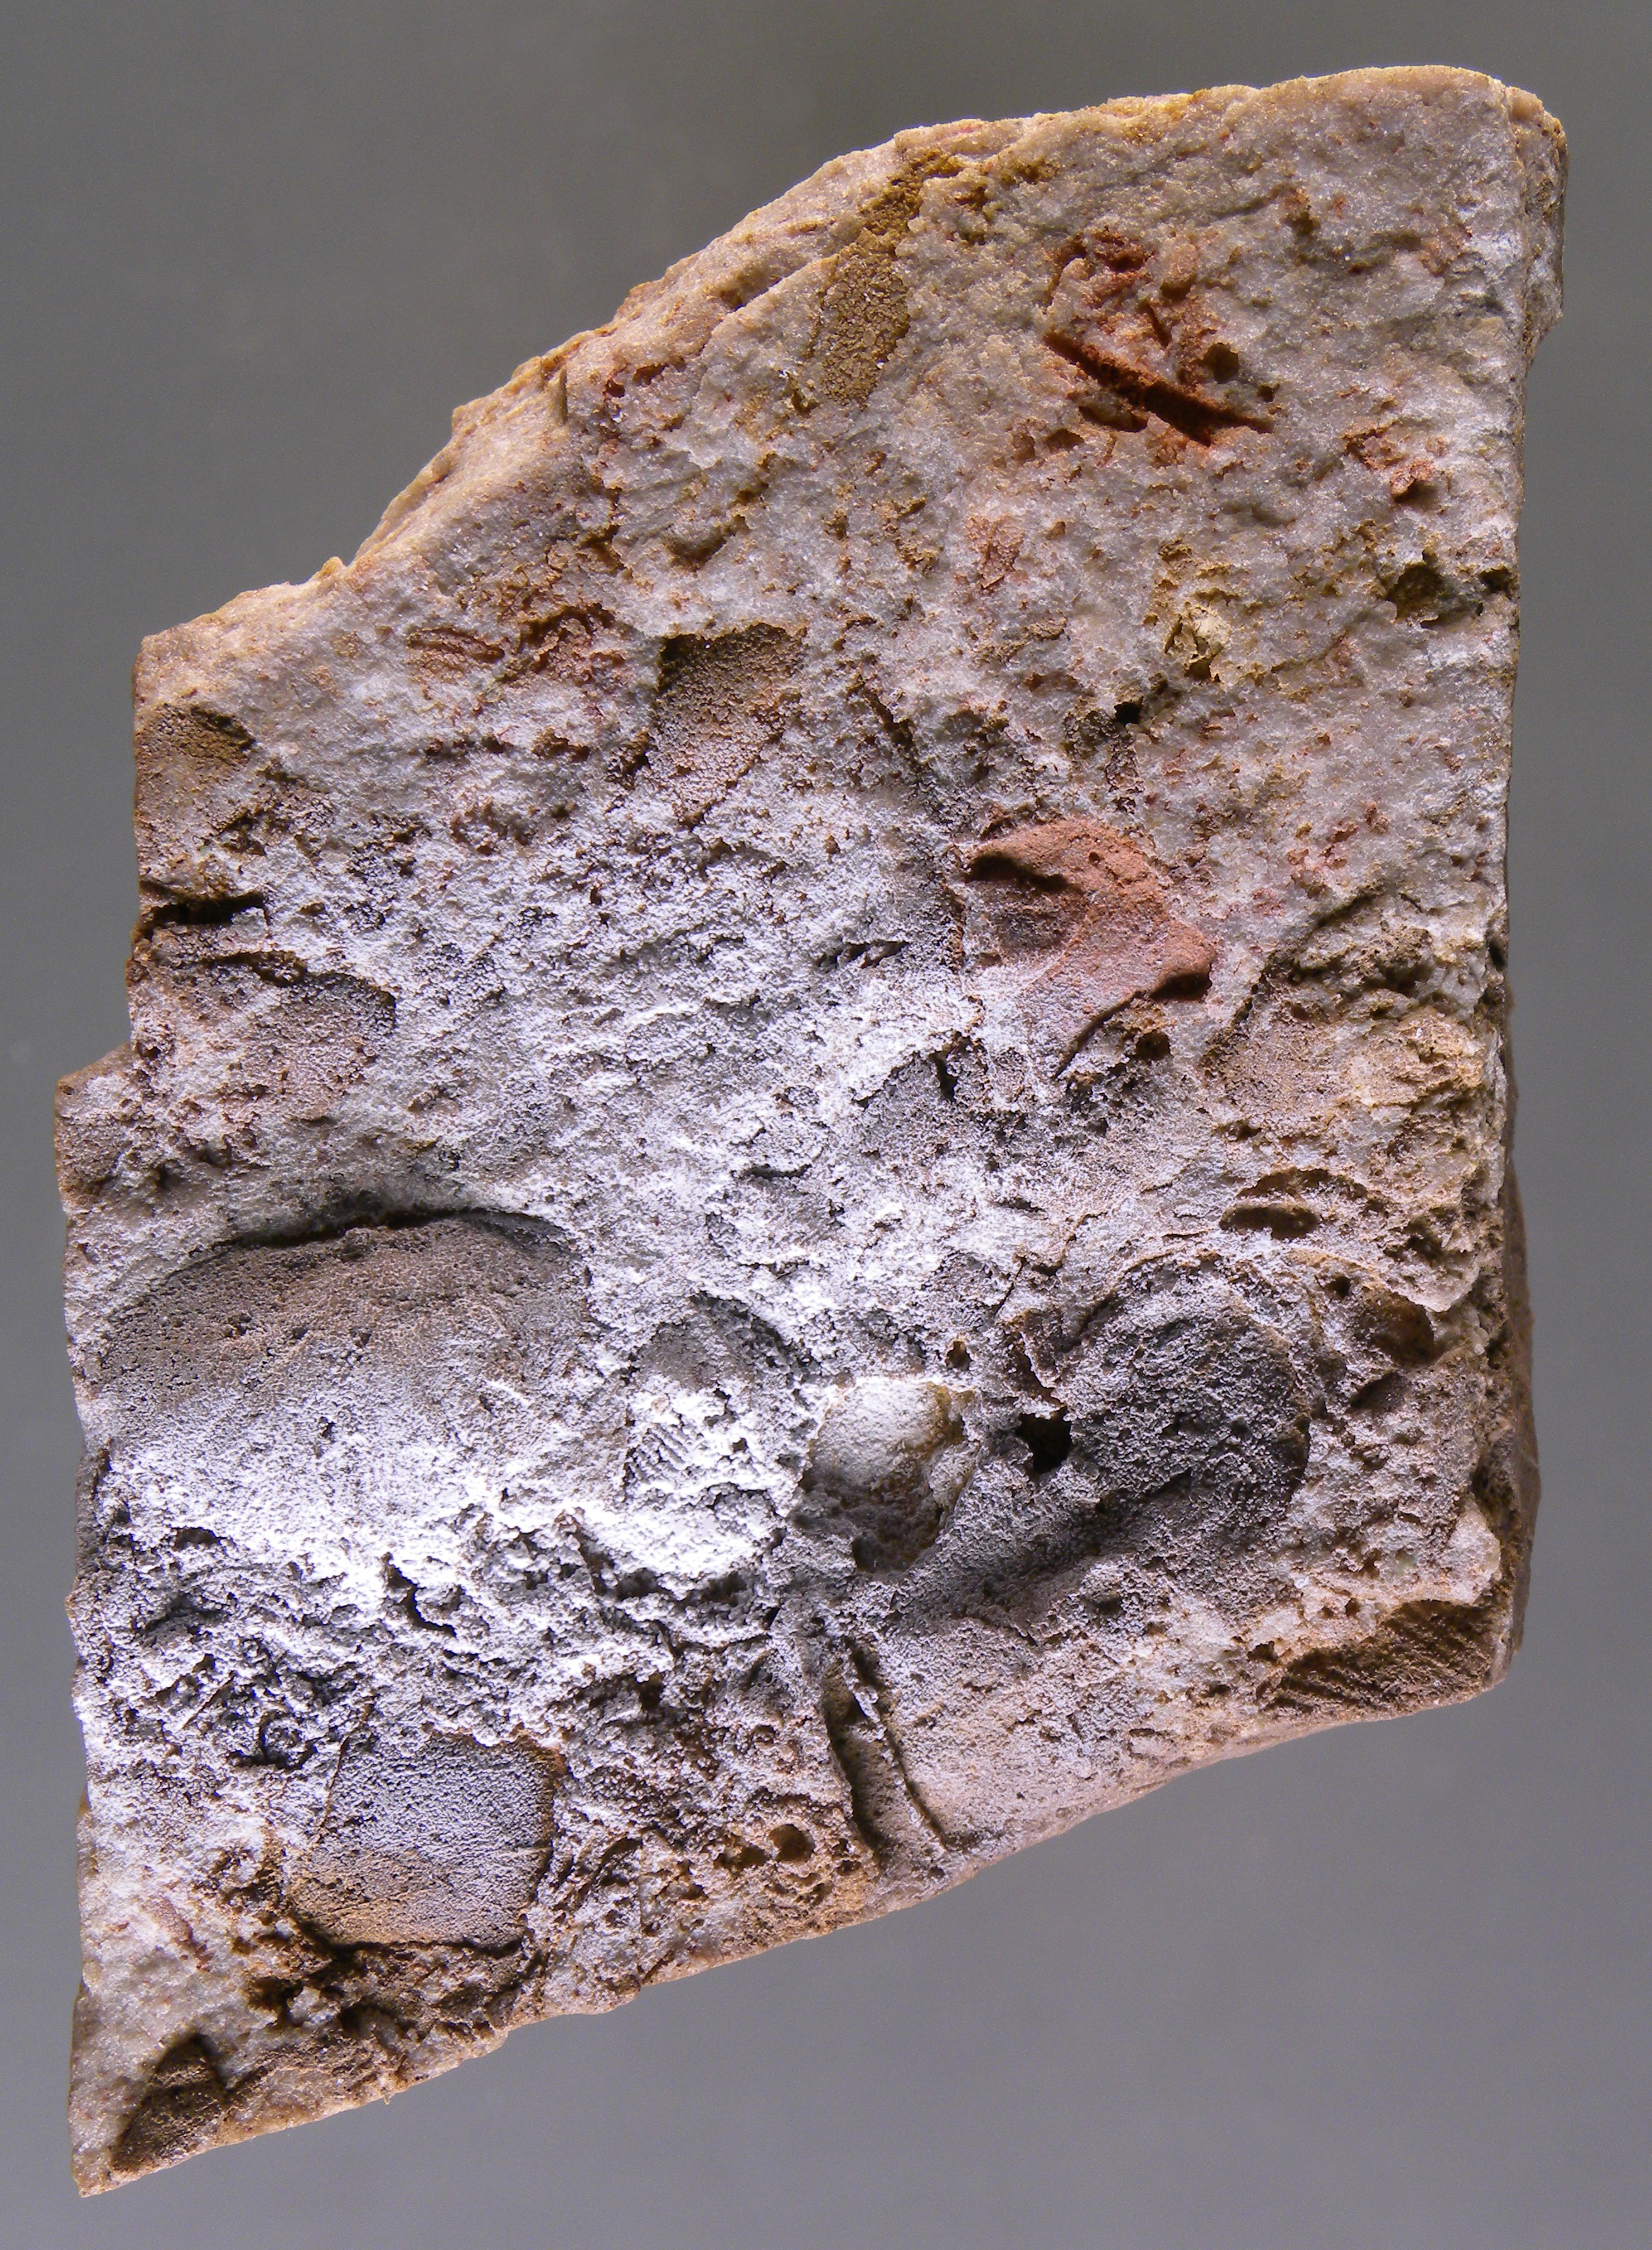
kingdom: Animalia
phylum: Mollusca
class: Bivalvia
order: Venerida
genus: Montanaria
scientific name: Montanaria
